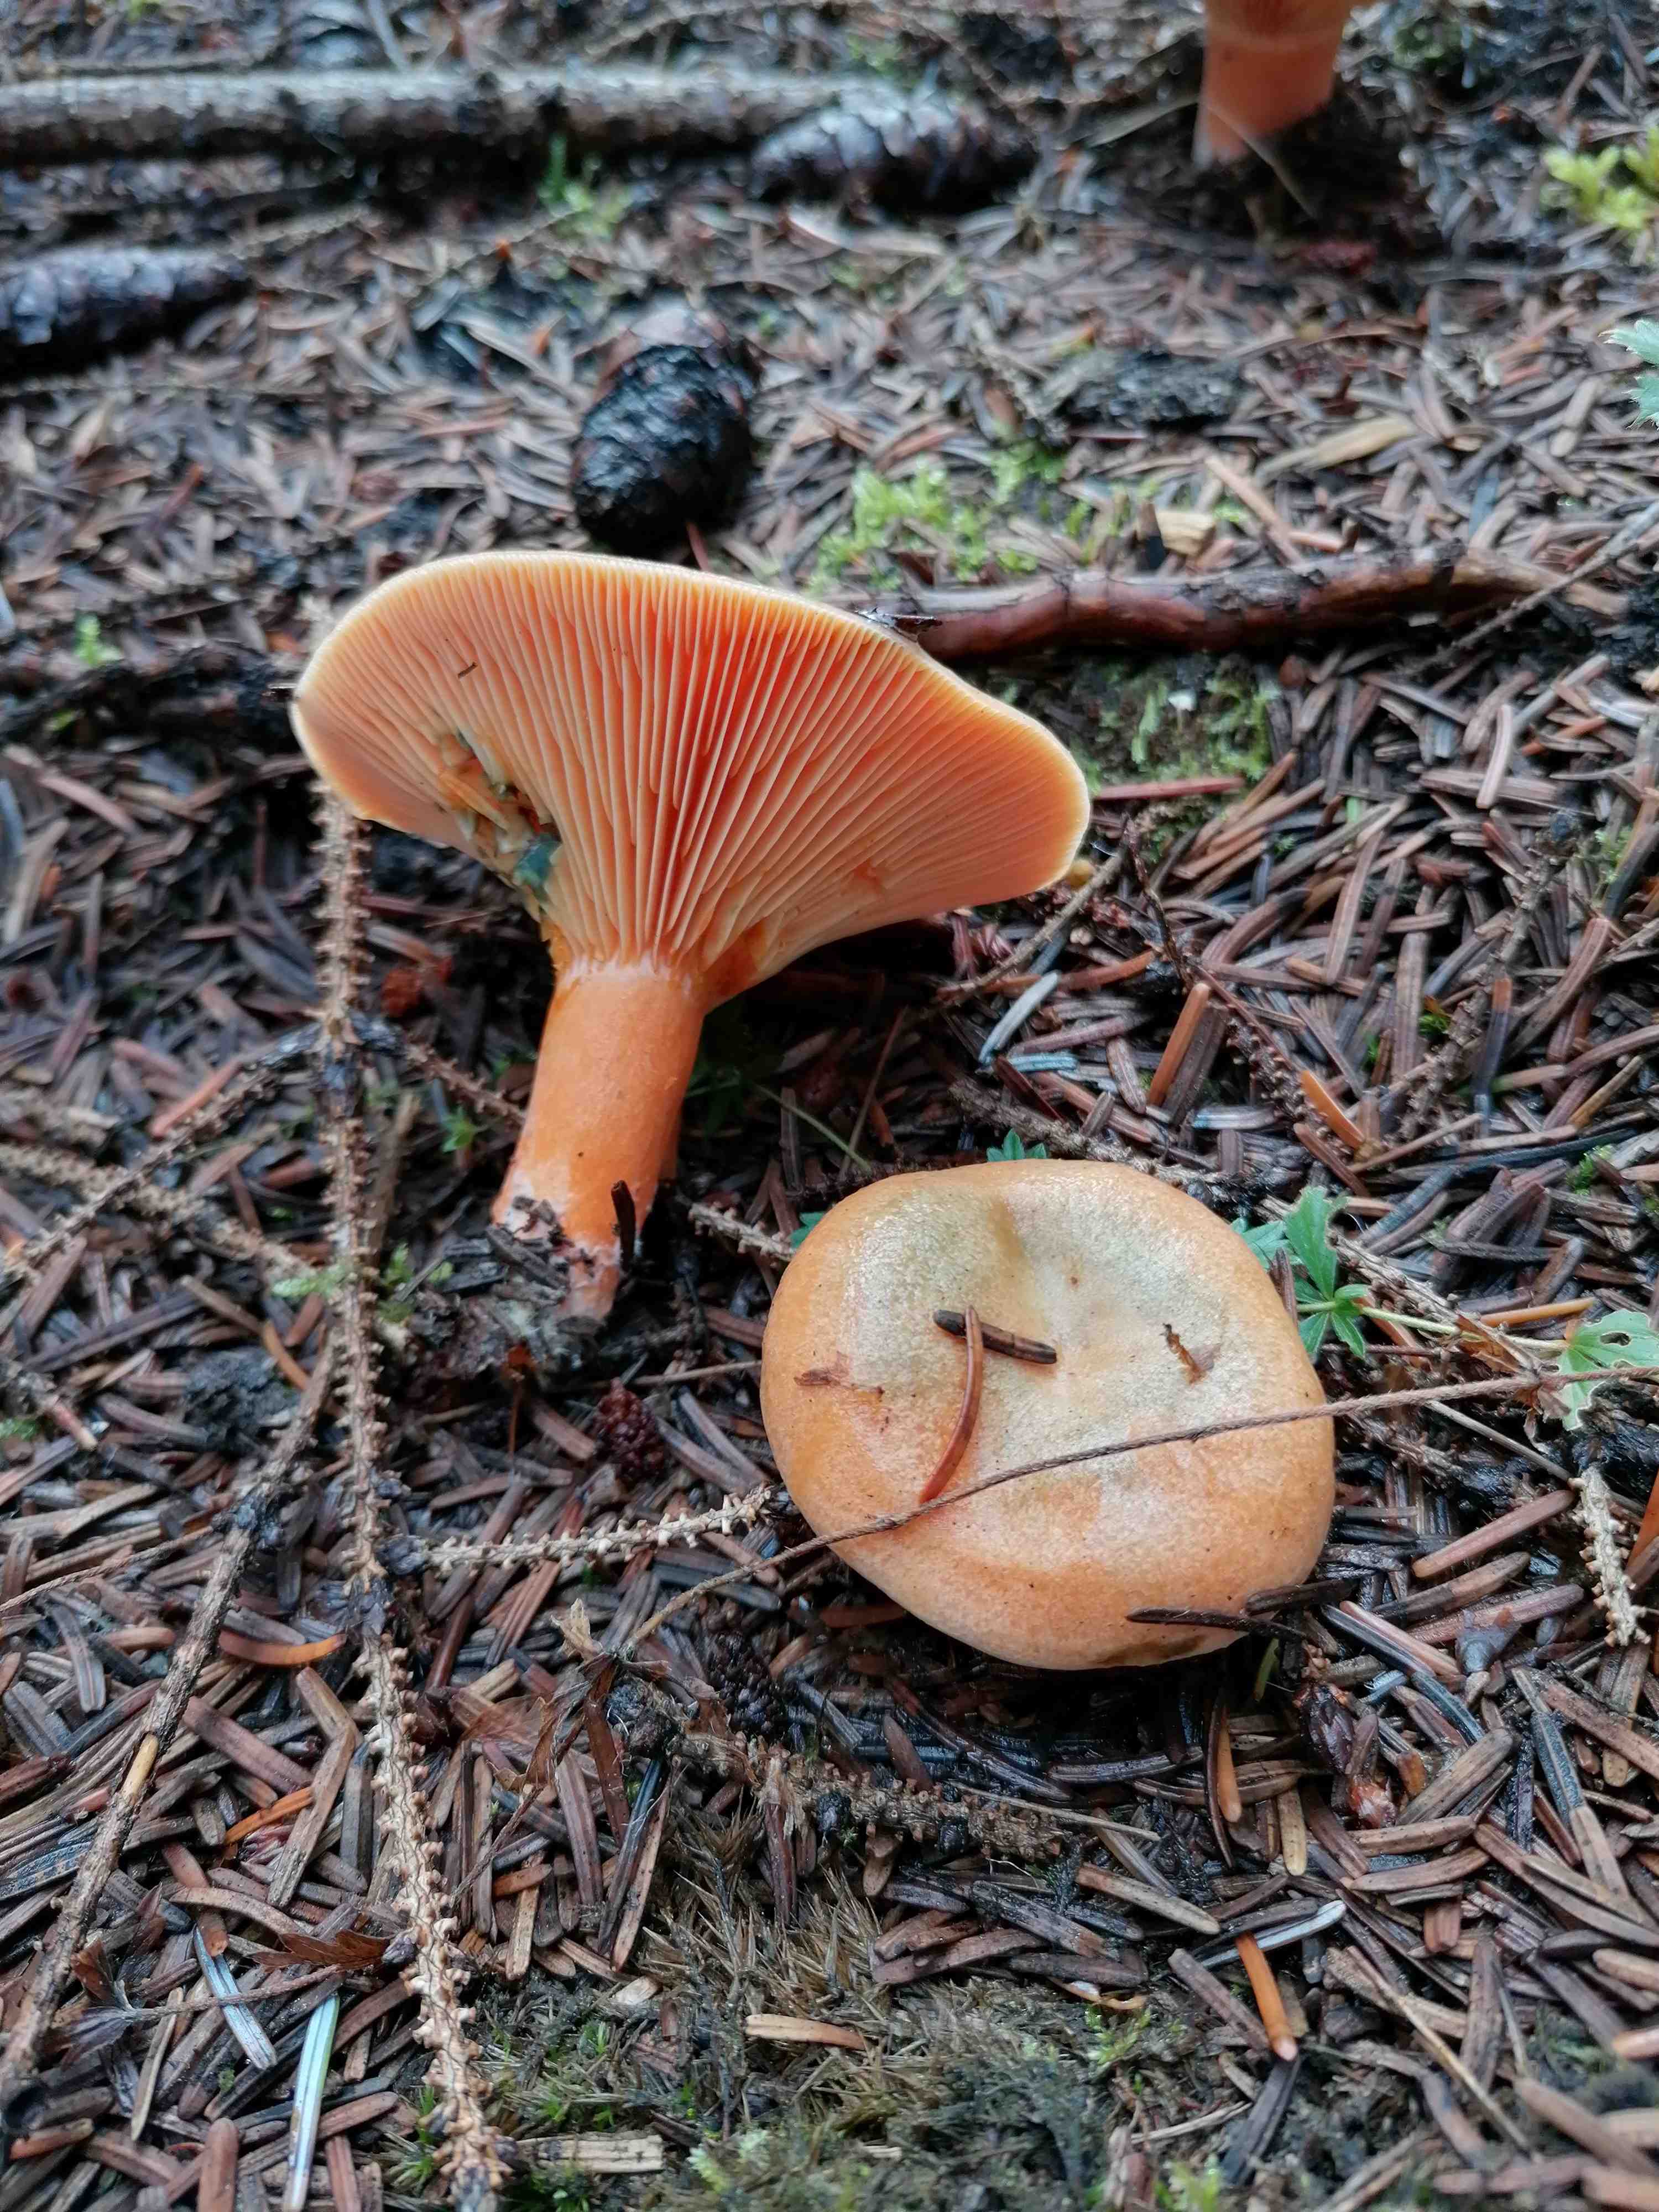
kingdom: Fungi
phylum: Basidiomycota
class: Agaricomycetes
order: Russulales
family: Russulaceae
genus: Lactarius
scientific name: Lactarius deterrimus
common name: gran-mælkehat
